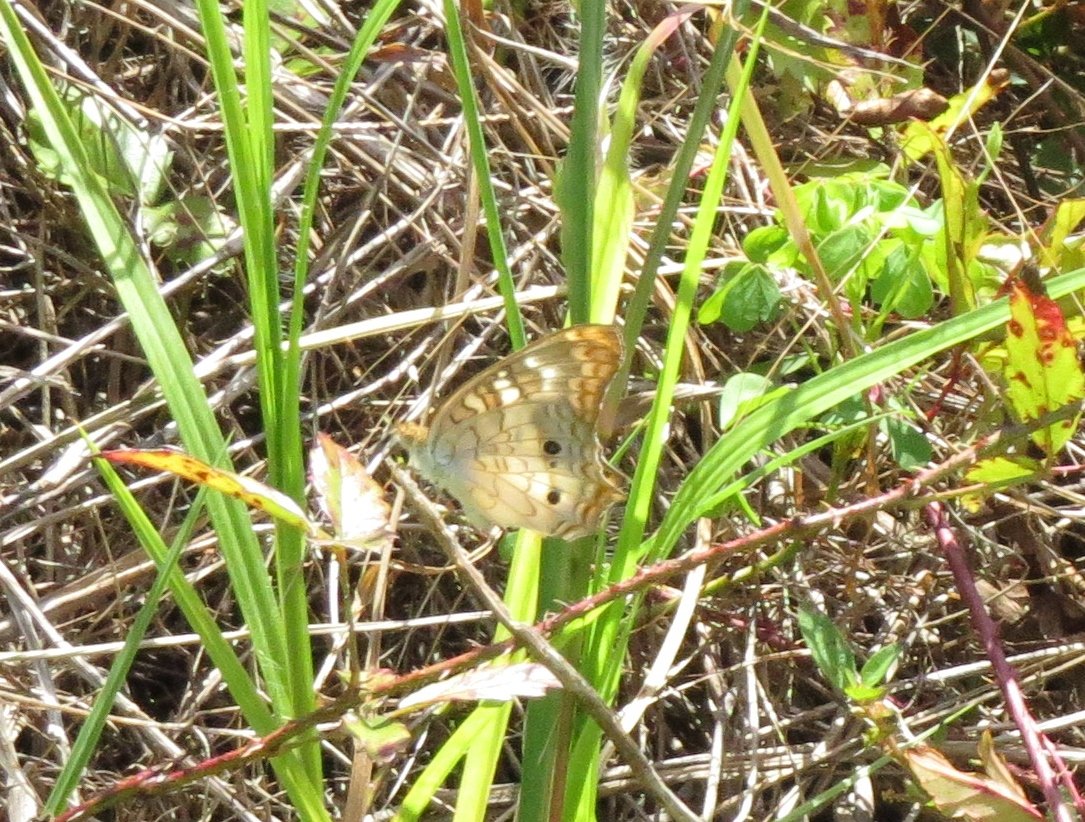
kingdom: Animalia
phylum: Arthropoda
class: Insecta
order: Lepidoptera
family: Nymphalidae
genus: Anartia
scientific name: Anartia jatrophae
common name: White Peacock
